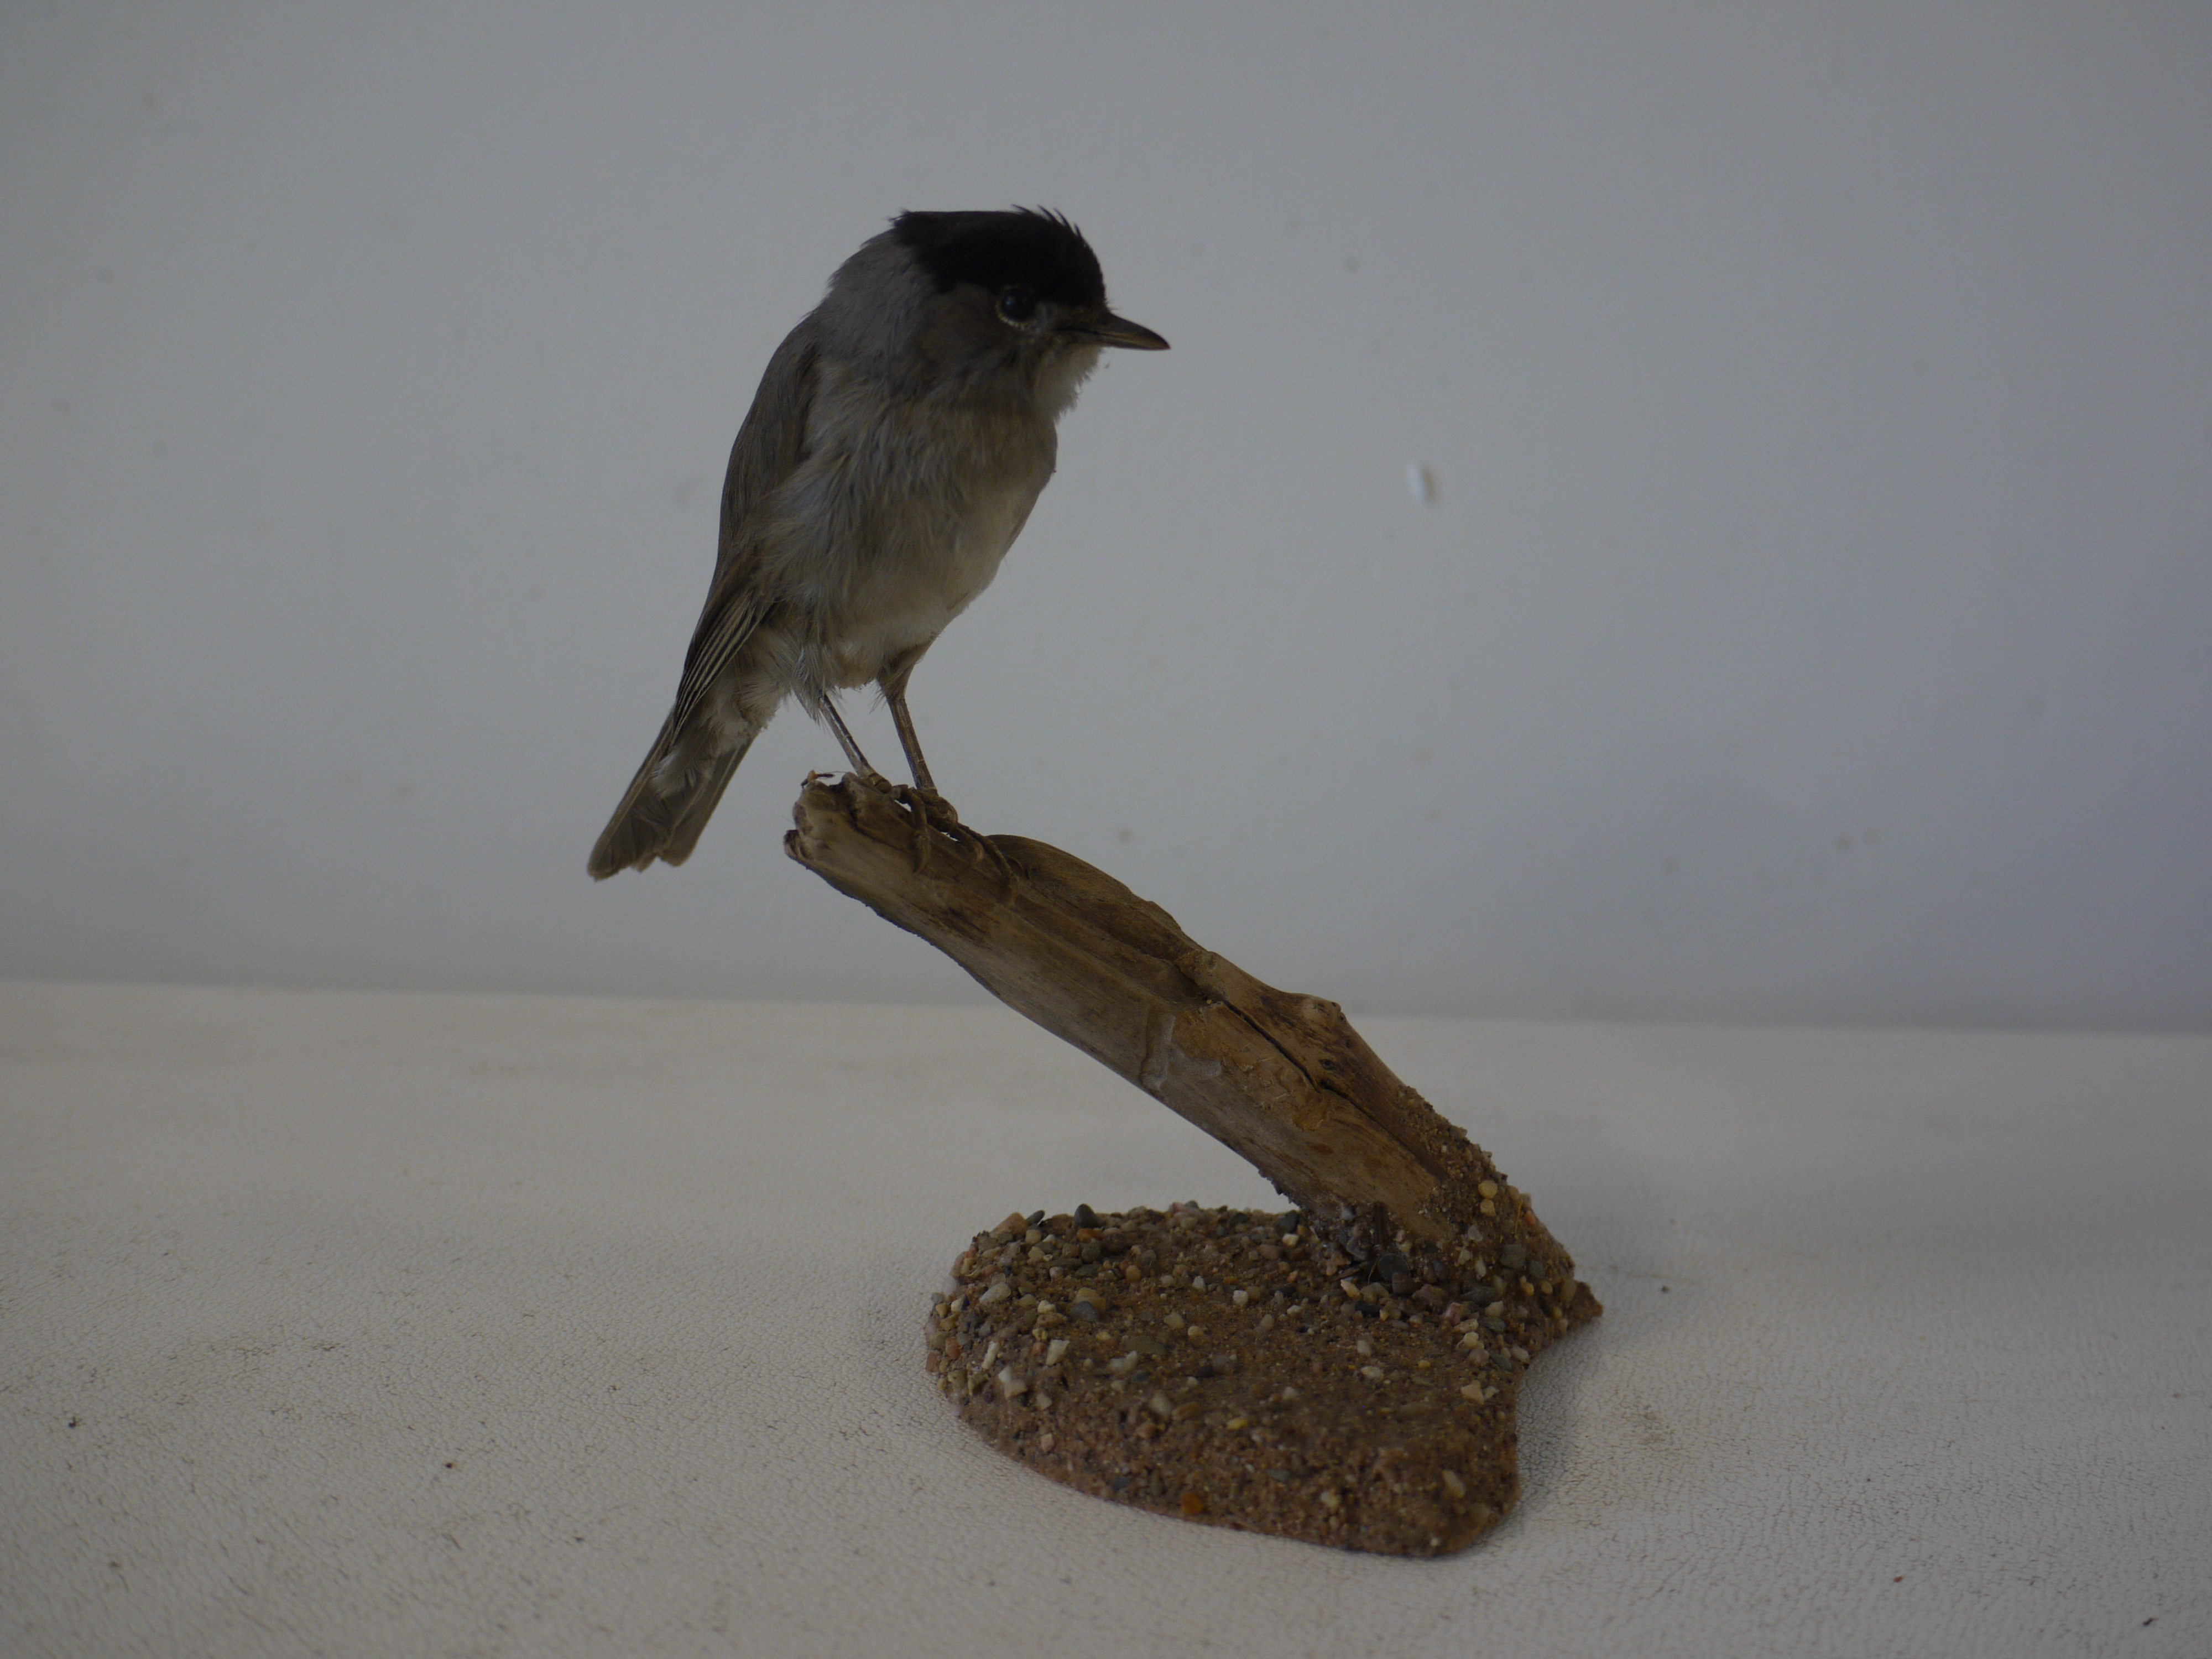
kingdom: Animalia
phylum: Chordata
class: Aves
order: Passeriformes
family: Sylviidae
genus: Sylvia
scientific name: Sylvia atricapilla
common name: Eurasian blackcap
